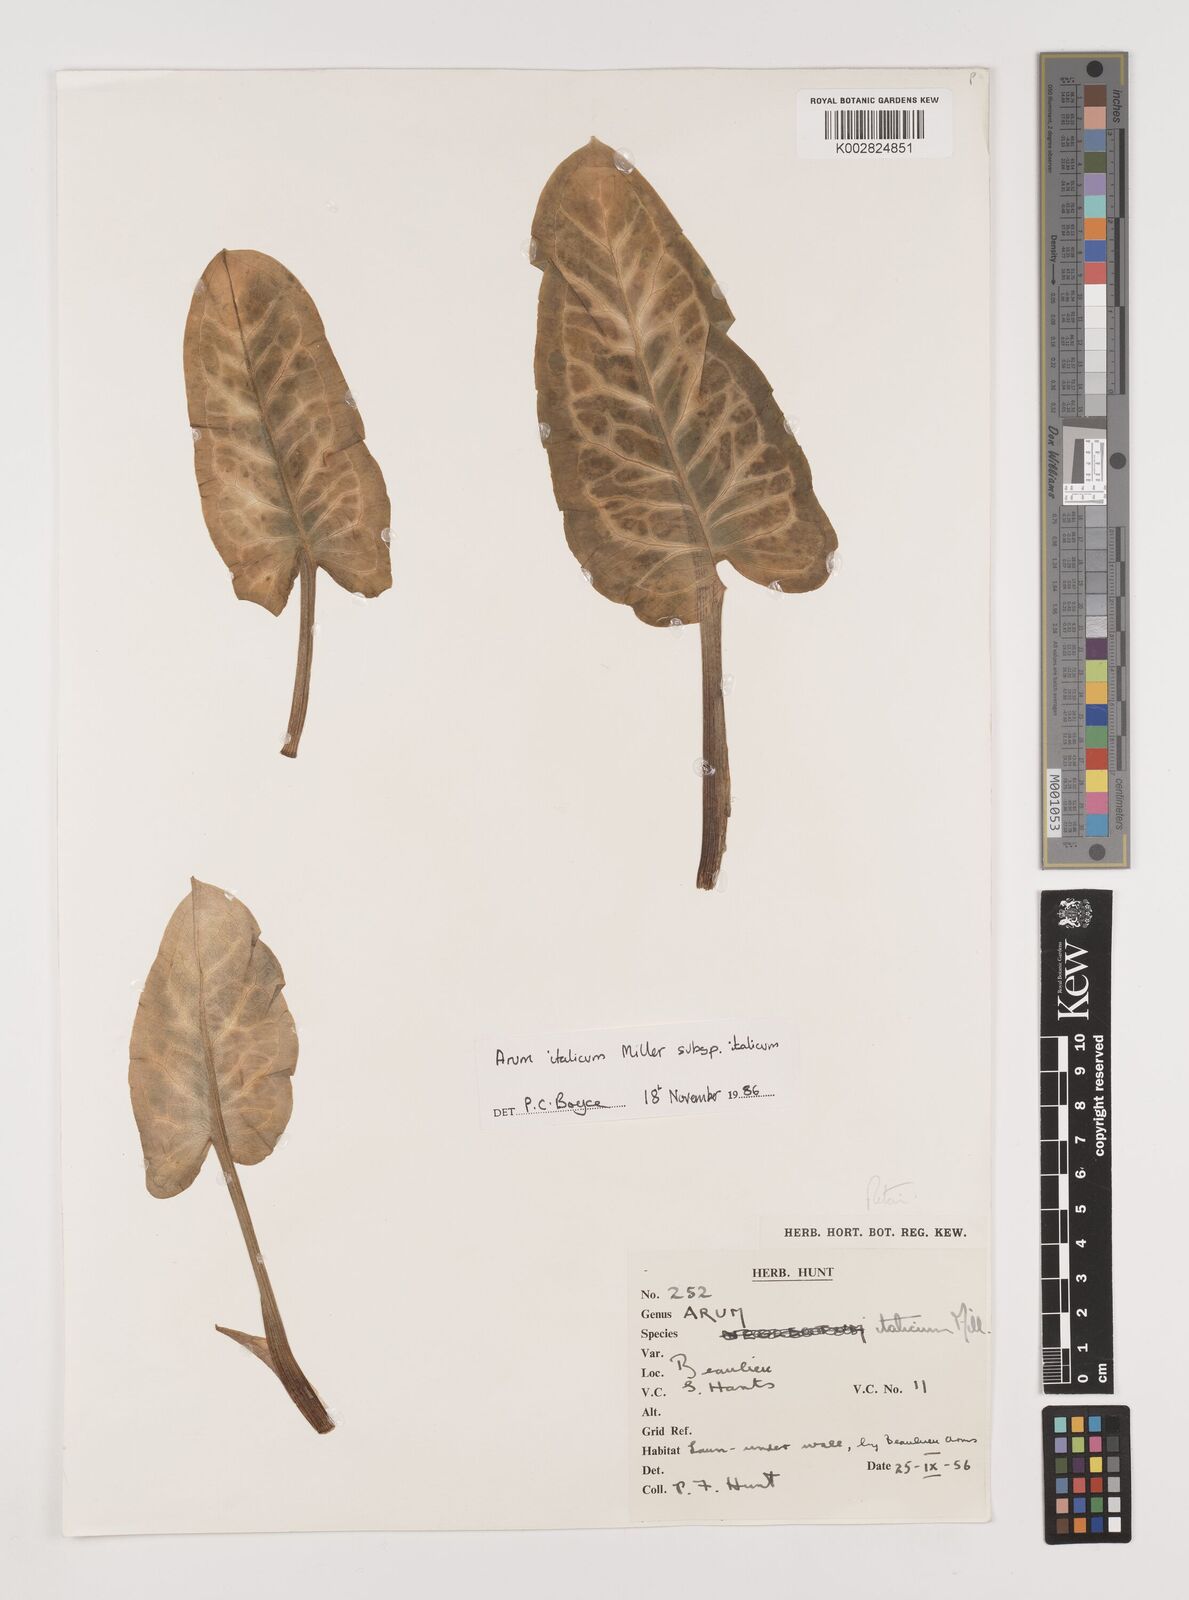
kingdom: Plantae
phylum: Tracheophyta
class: Liliopsida
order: Alismatales
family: Araceae
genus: Arum
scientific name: Arum italicum
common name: Italian lords-and-ladies
